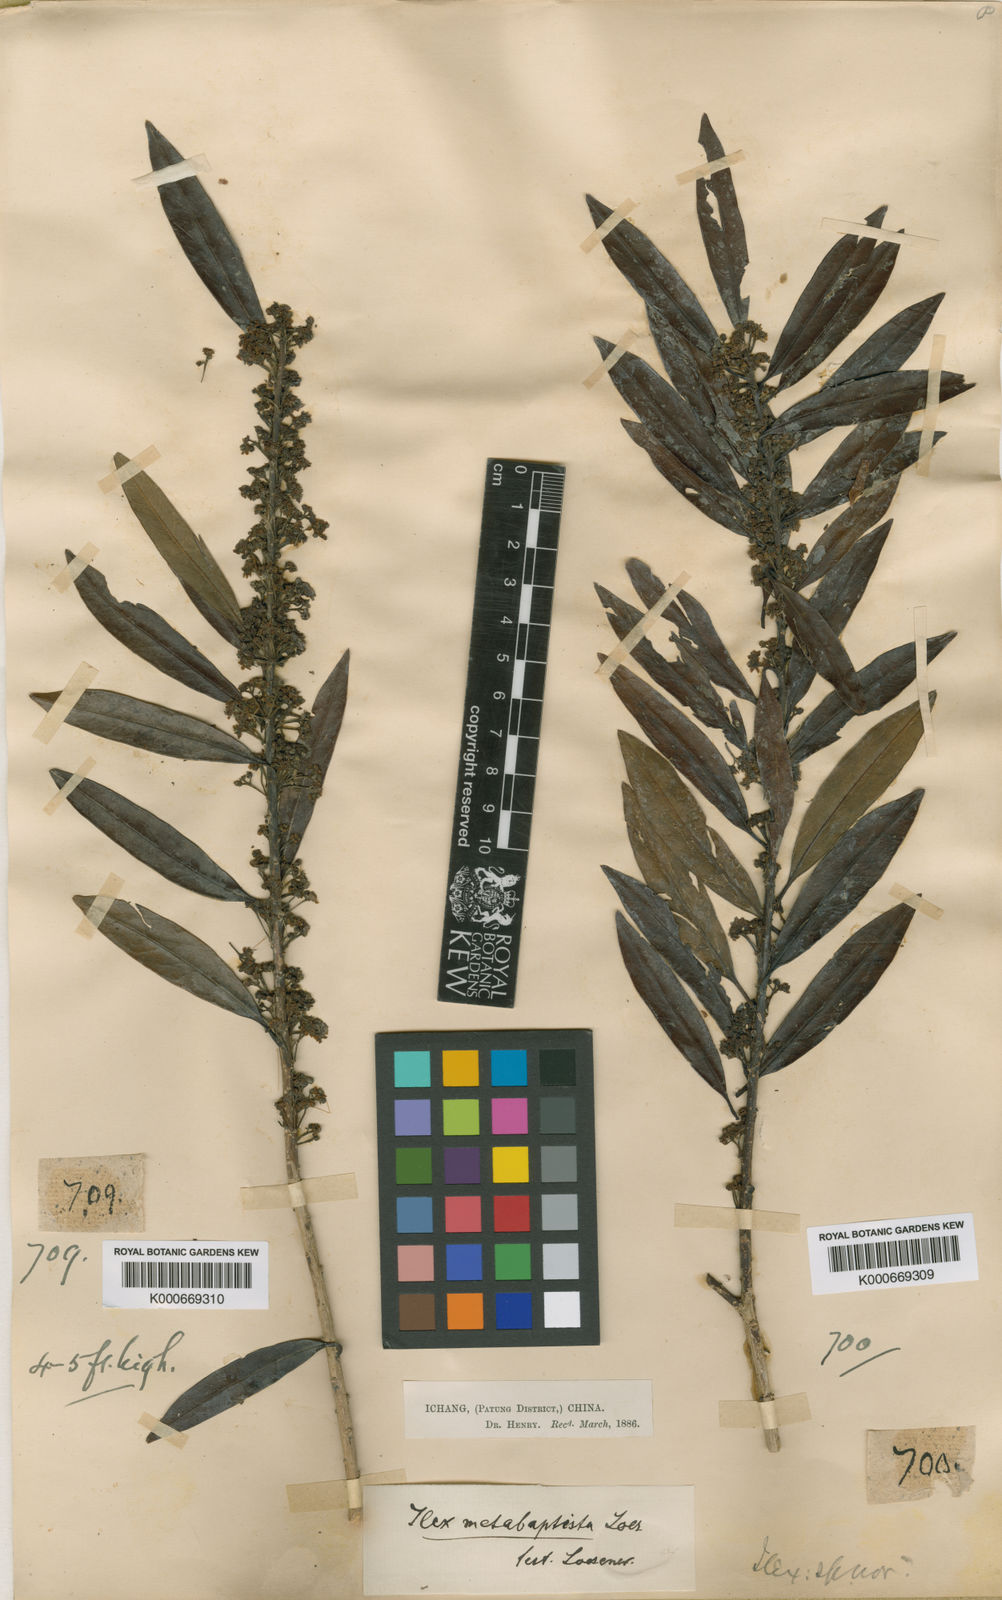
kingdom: Plantae
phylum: Tracheophyta
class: Magnoliopsida
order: Aquifoliales
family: Aquifoliaceae
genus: Ilex
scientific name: Ilex metabaptista
